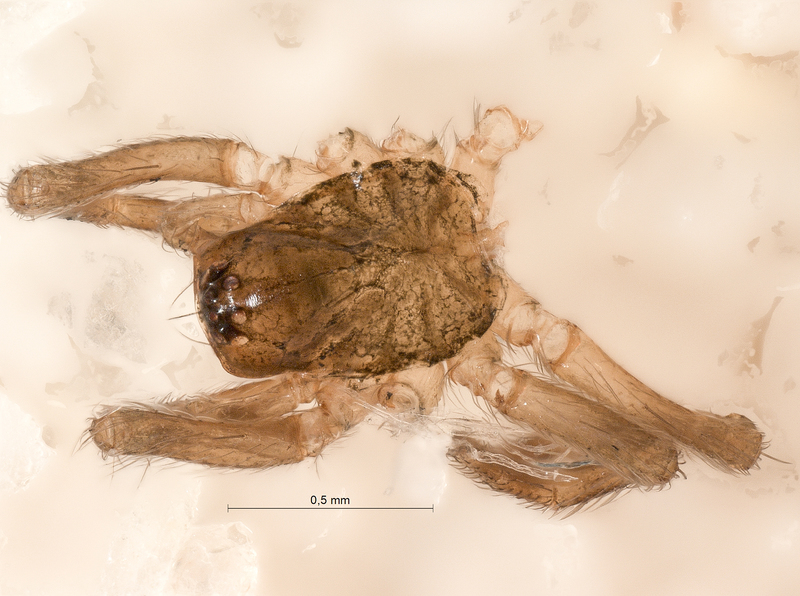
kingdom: Animalia
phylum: Arthropoda
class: Arachnida
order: Araneae
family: Hahniidae
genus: Hahnia
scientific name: Hahnia nava
